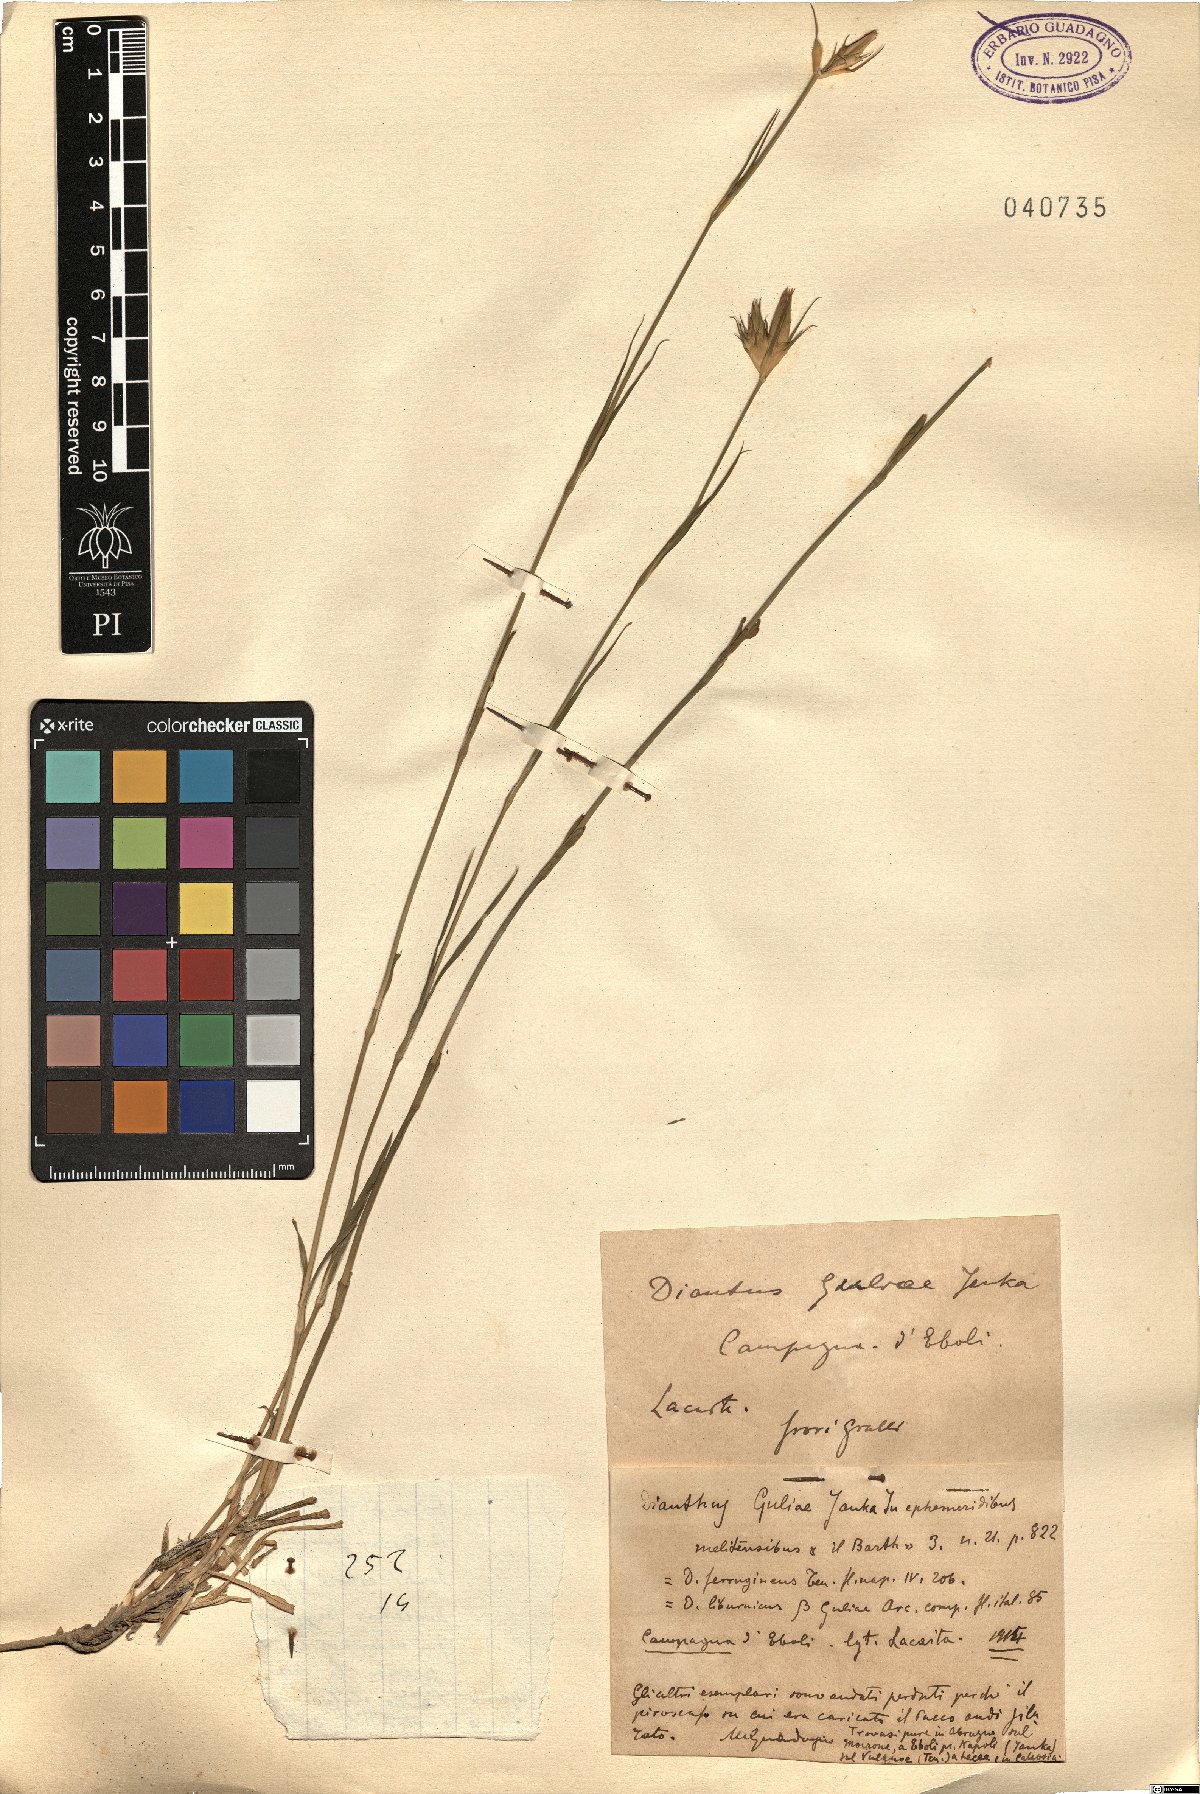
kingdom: Plantae
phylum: Tracheophyta
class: Magnoliopsida
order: Caryophyllales
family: Caryophyllaceae
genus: Dianthus
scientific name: Dianthus guliae
